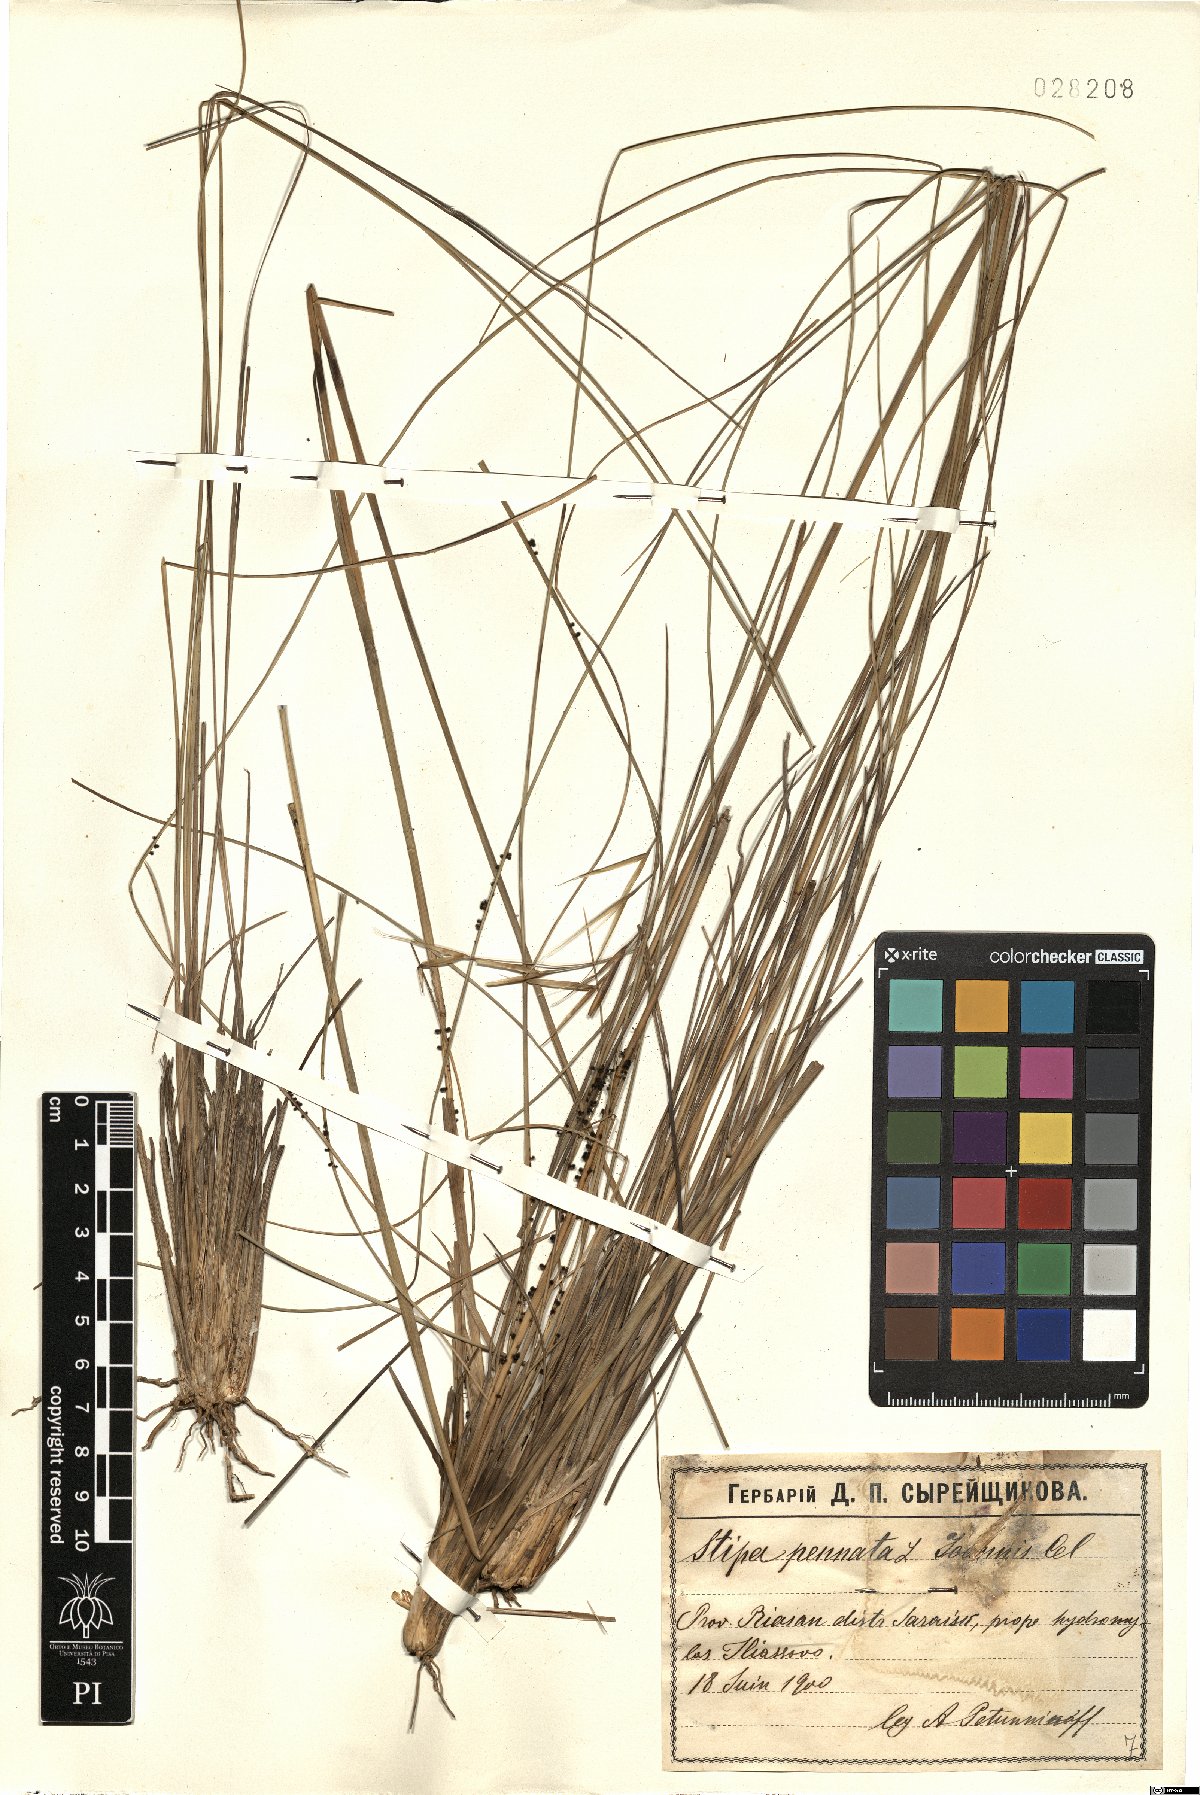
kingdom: Plantae
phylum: Tracheophyta
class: Liliopsida
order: Poales
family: Poaceae
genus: Stipa
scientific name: Stipa pennata
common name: European feather grass
